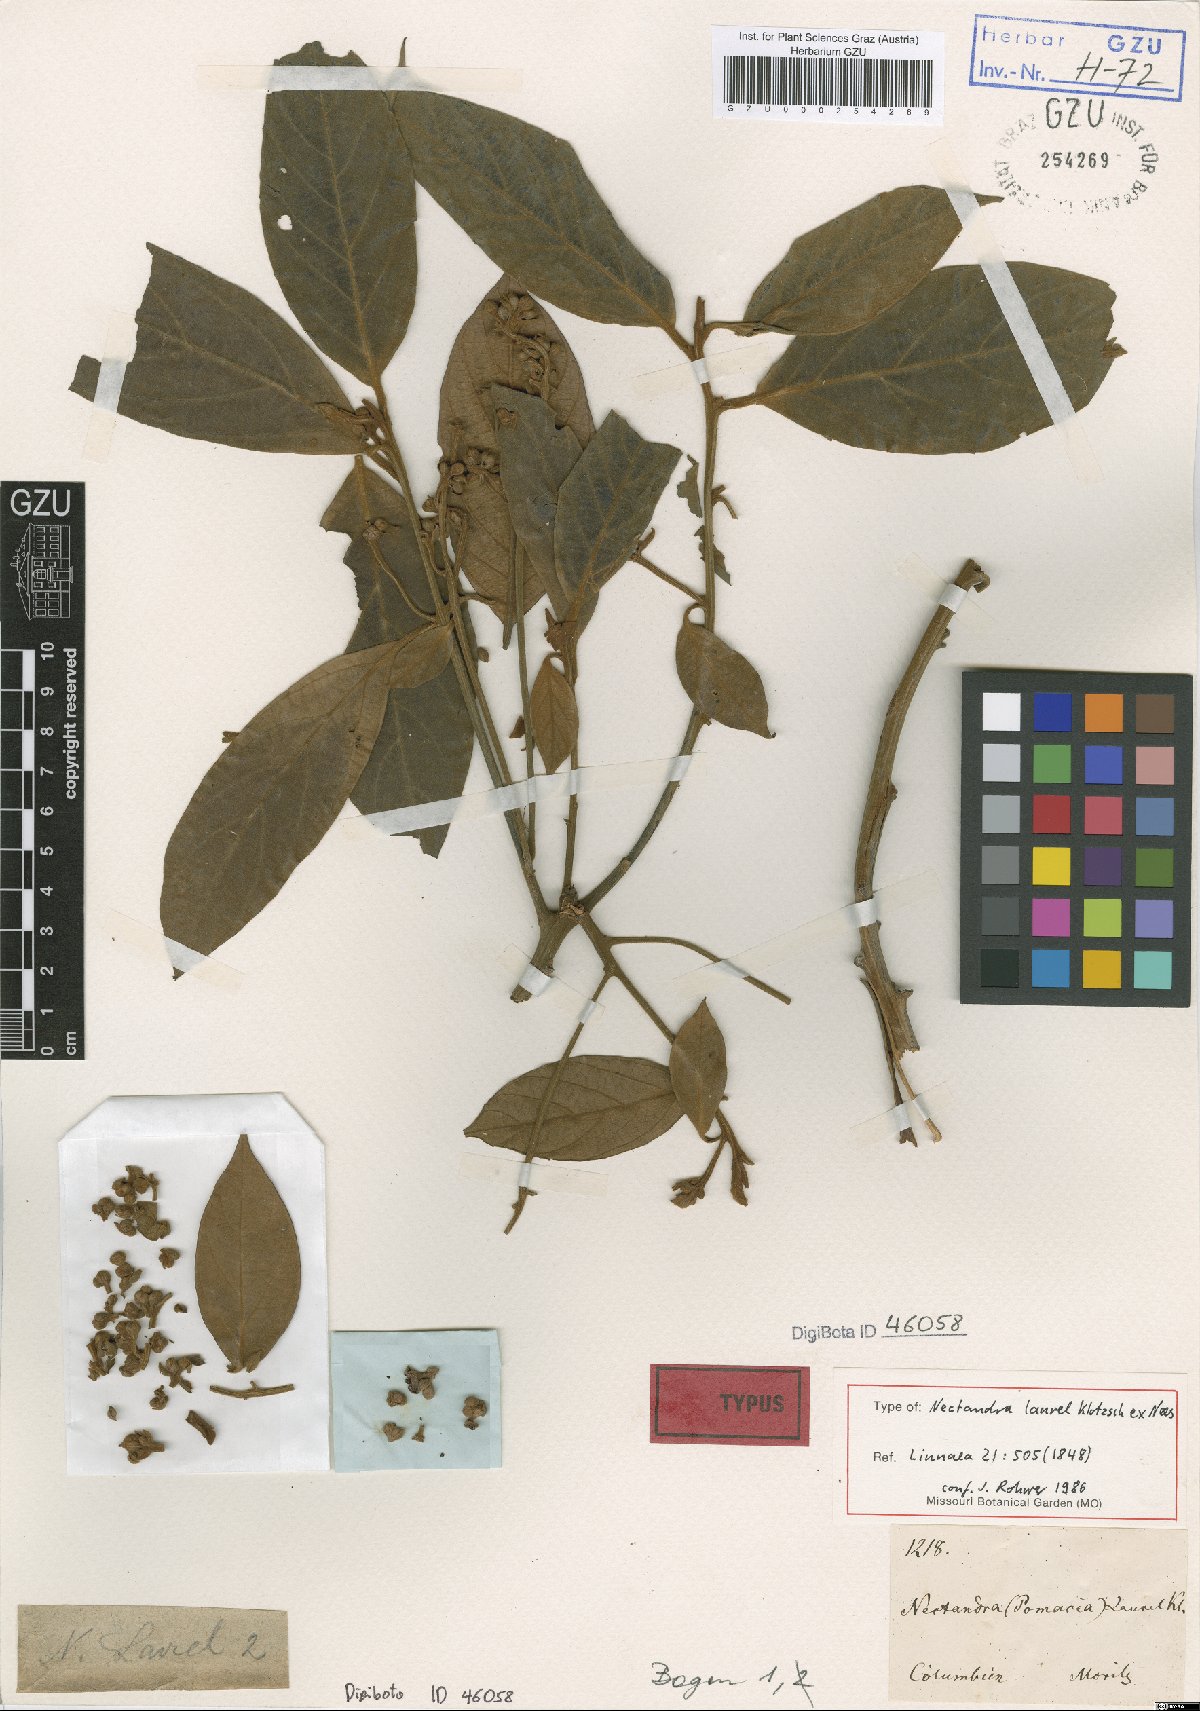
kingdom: Plantae
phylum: Tracheophyta
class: Magnoliopsida
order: Laurales
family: Lauraceae
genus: Nectandra
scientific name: Nectandra laurel
